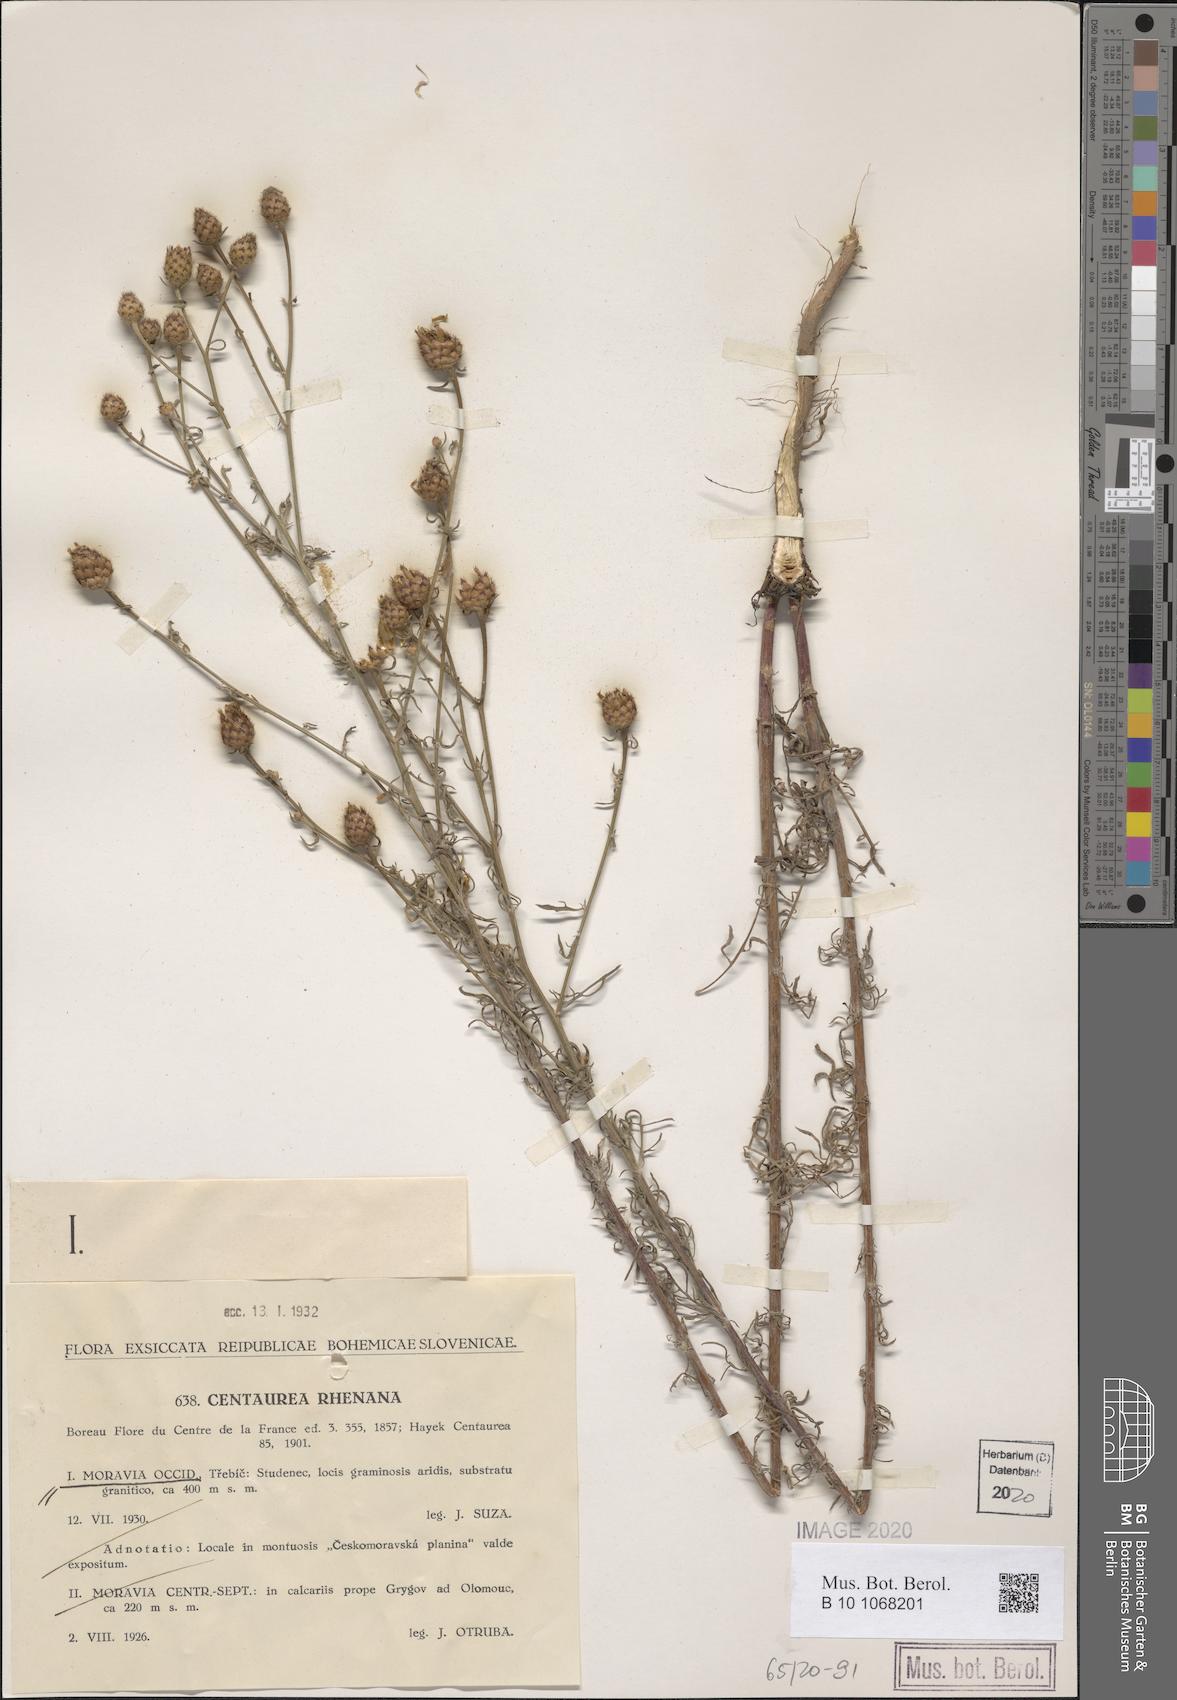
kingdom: Plantae
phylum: Tracheophyta
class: Magnoliopsida
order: Asterales
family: Asteraceae
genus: Centaurea
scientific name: Centaurea stoebe
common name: Spotted knapweed
